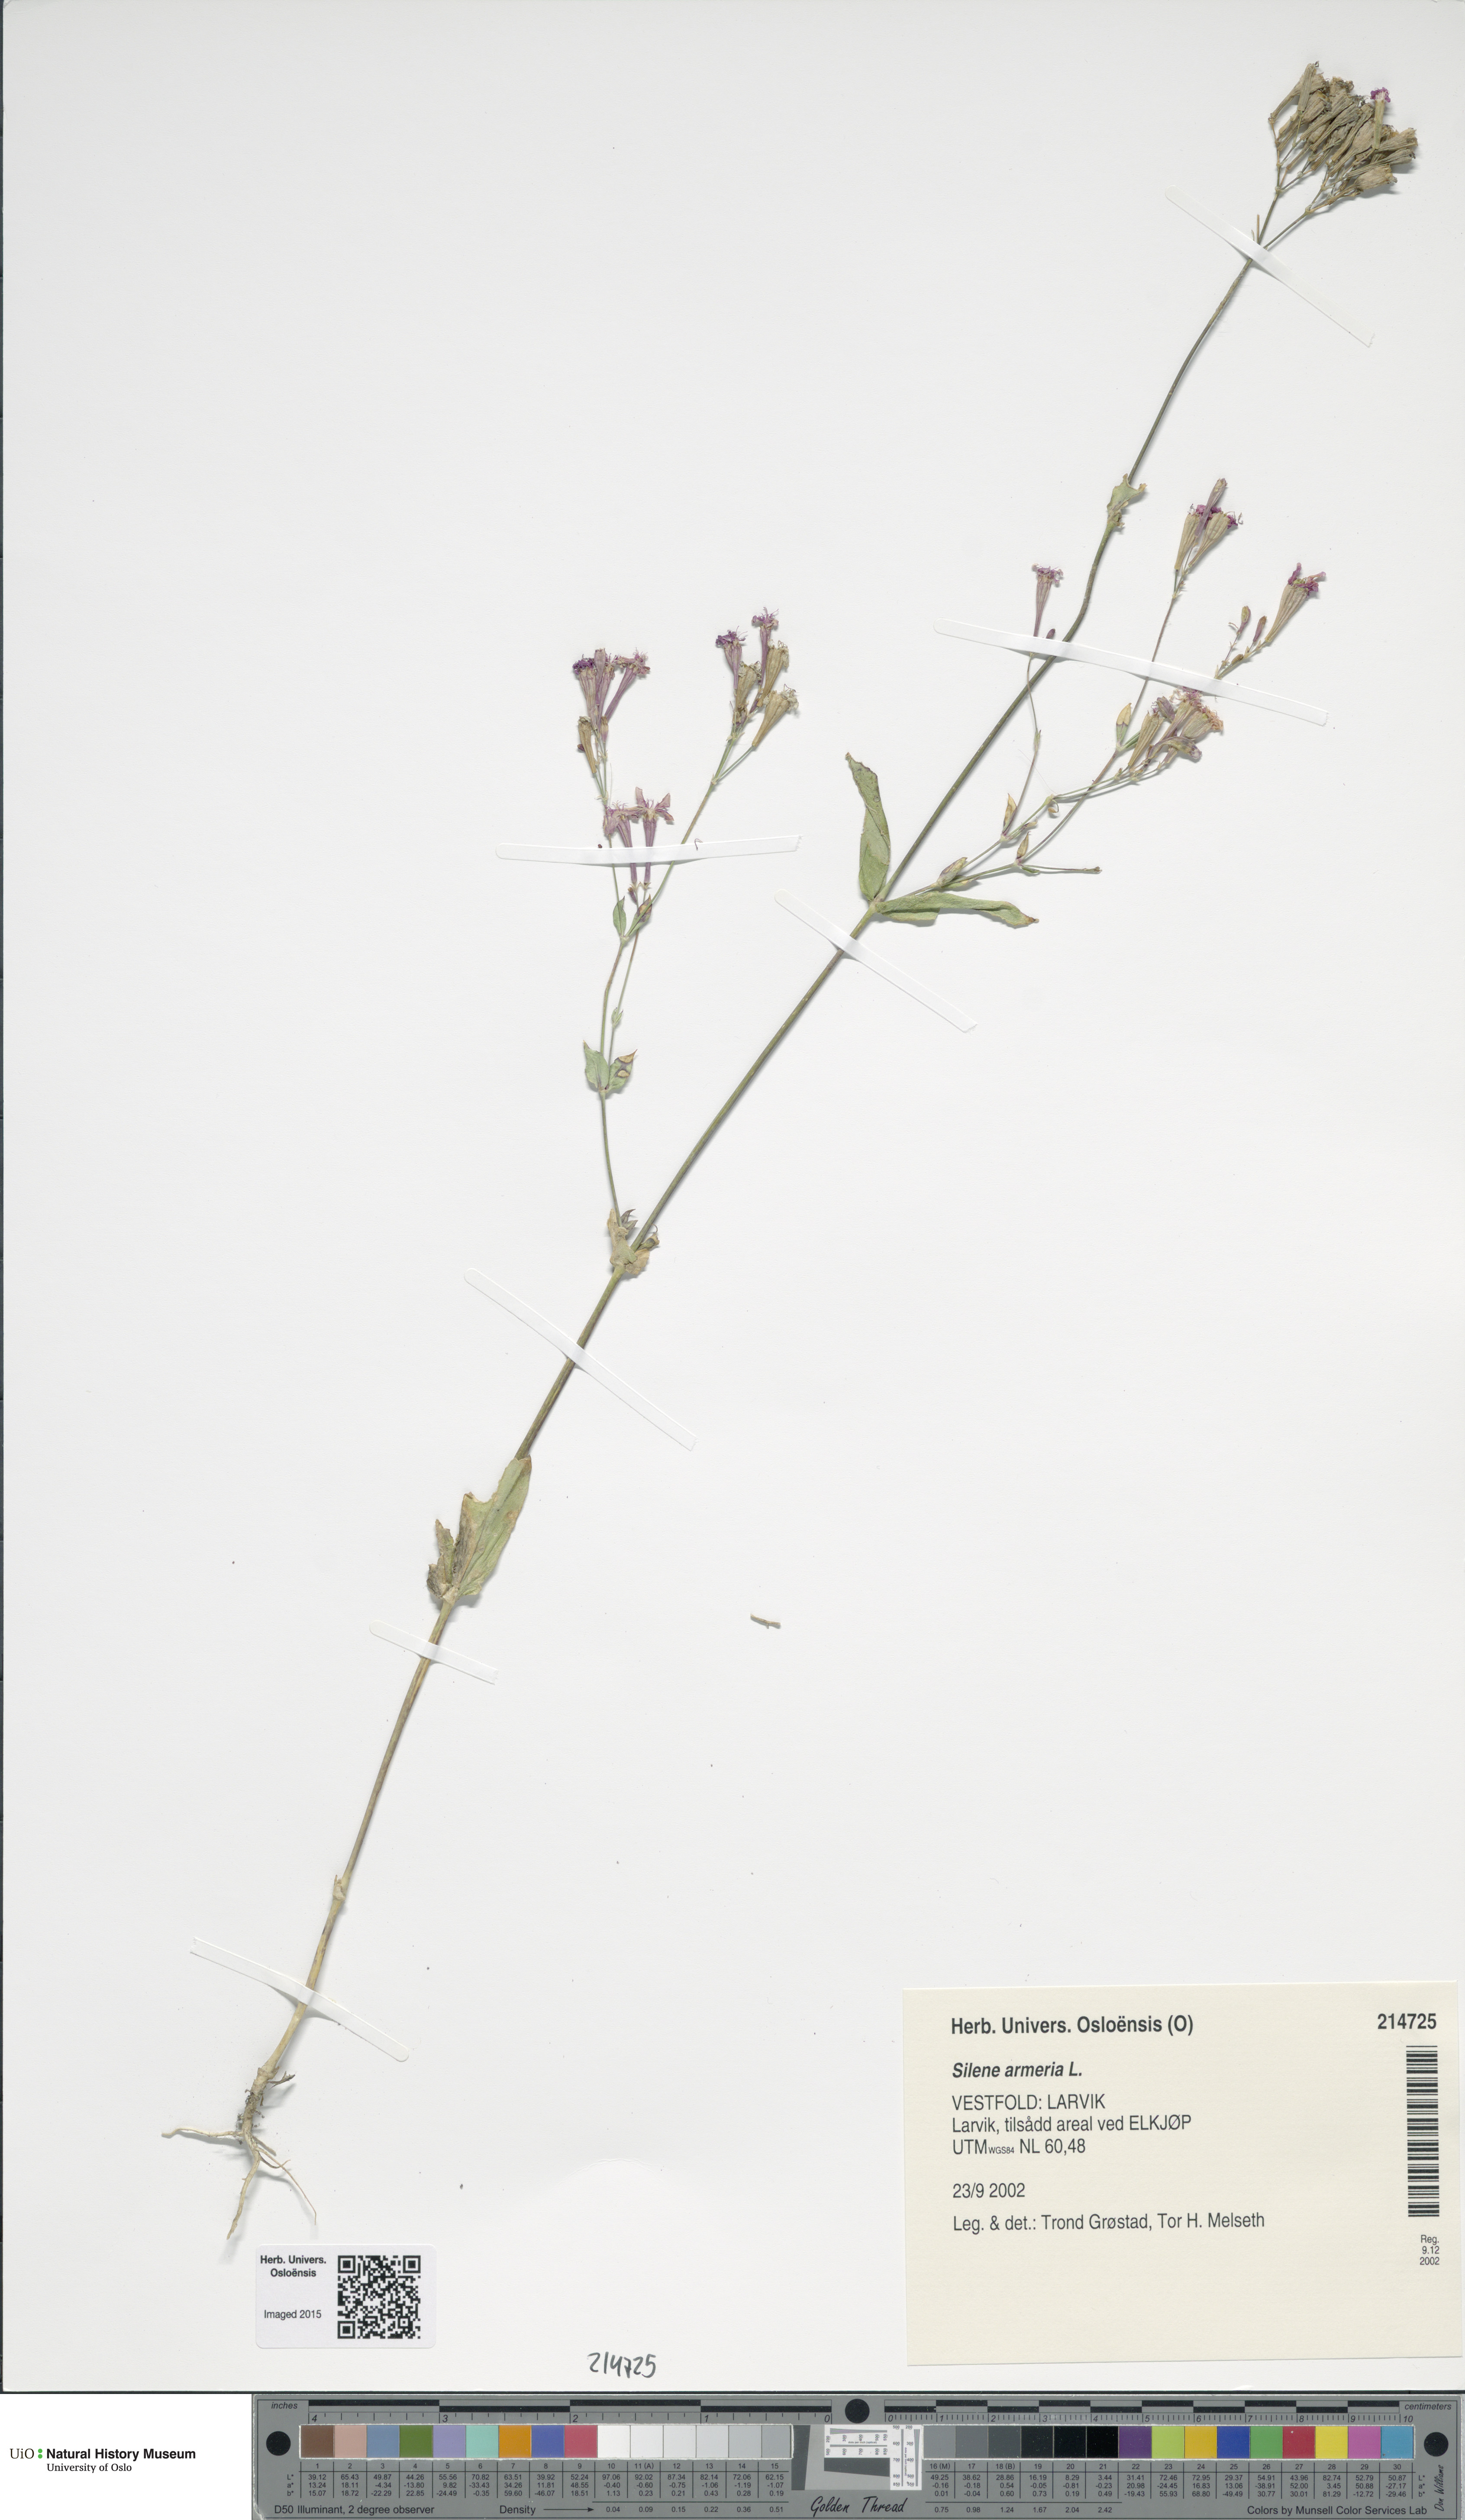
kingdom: Plantae
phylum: Tracheophyta
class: Magnoliopsida
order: Caryophyllales
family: Caryophyllaceae
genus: Atocion
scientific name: Atocion armeria
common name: Sweet william catchfly
